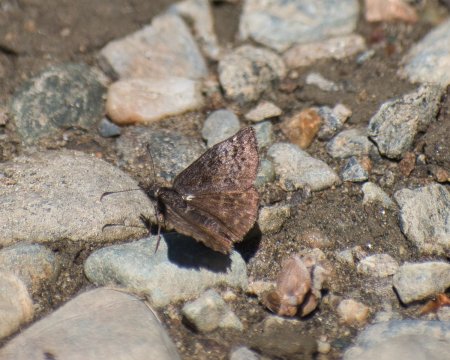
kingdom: Animalia
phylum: Arthropoda
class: Insecta
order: Lepidoptera
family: Hesperiidae
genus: Erynnis
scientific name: Erynnis icelus
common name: Dreamy Duskywing
